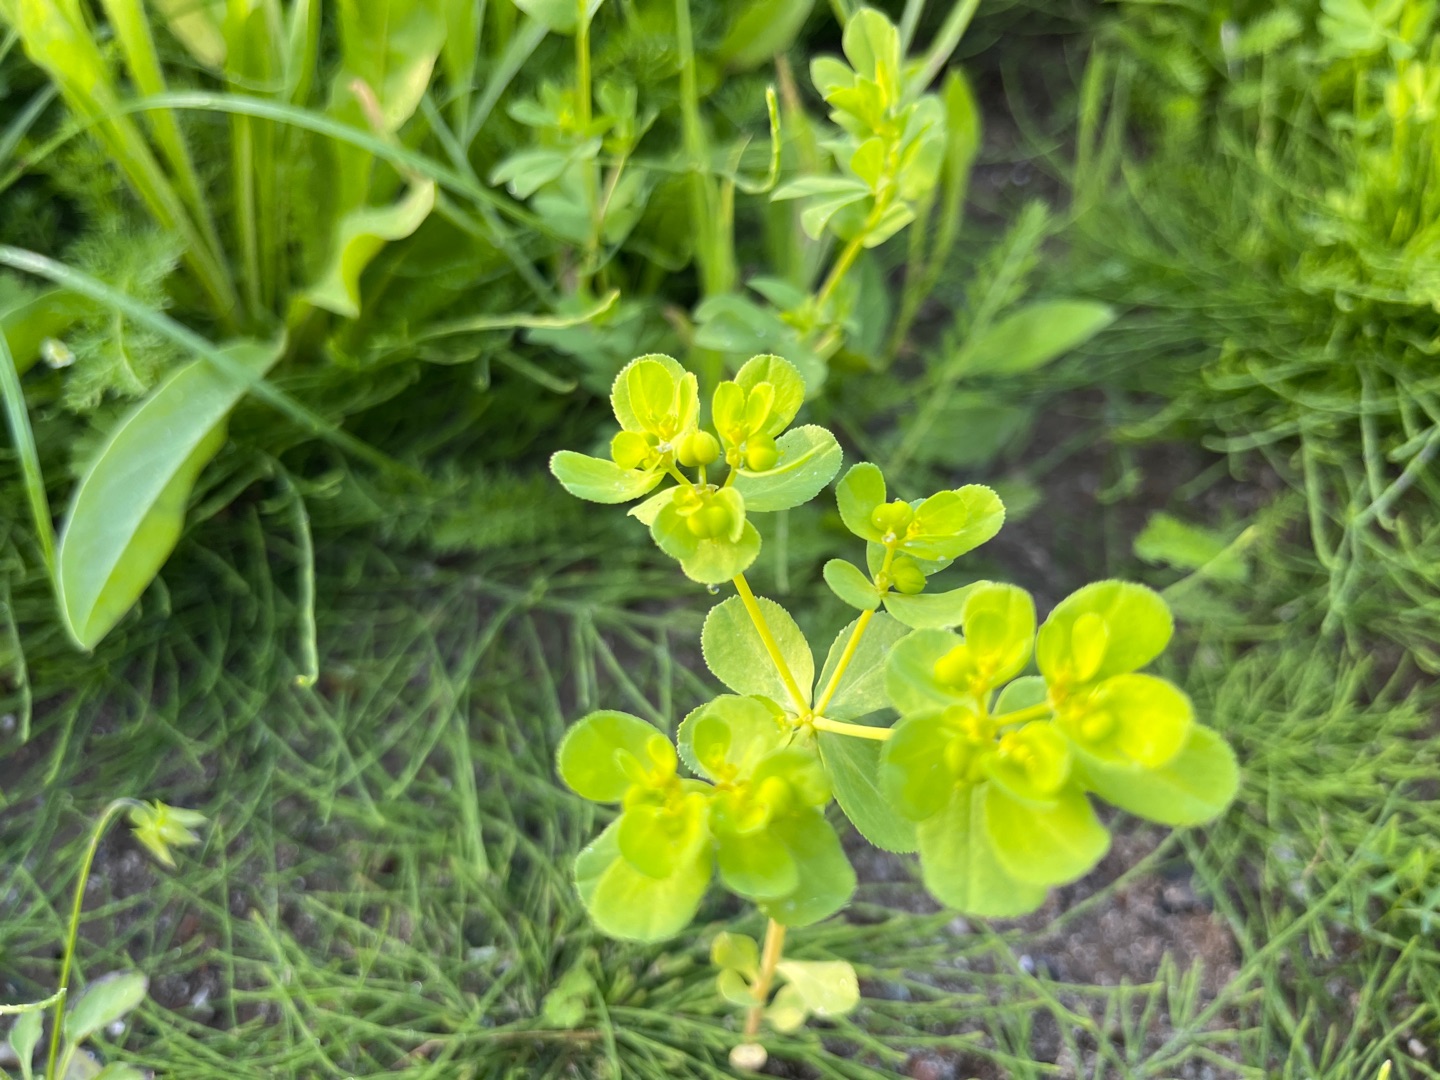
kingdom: Plantae
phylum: Tracheophyta
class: Magnoliopsida
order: Malpighiales
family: Euphorbiaceae
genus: Euphorbia
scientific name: Euphorbia helioscopia
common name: Skærm-vortemælk
